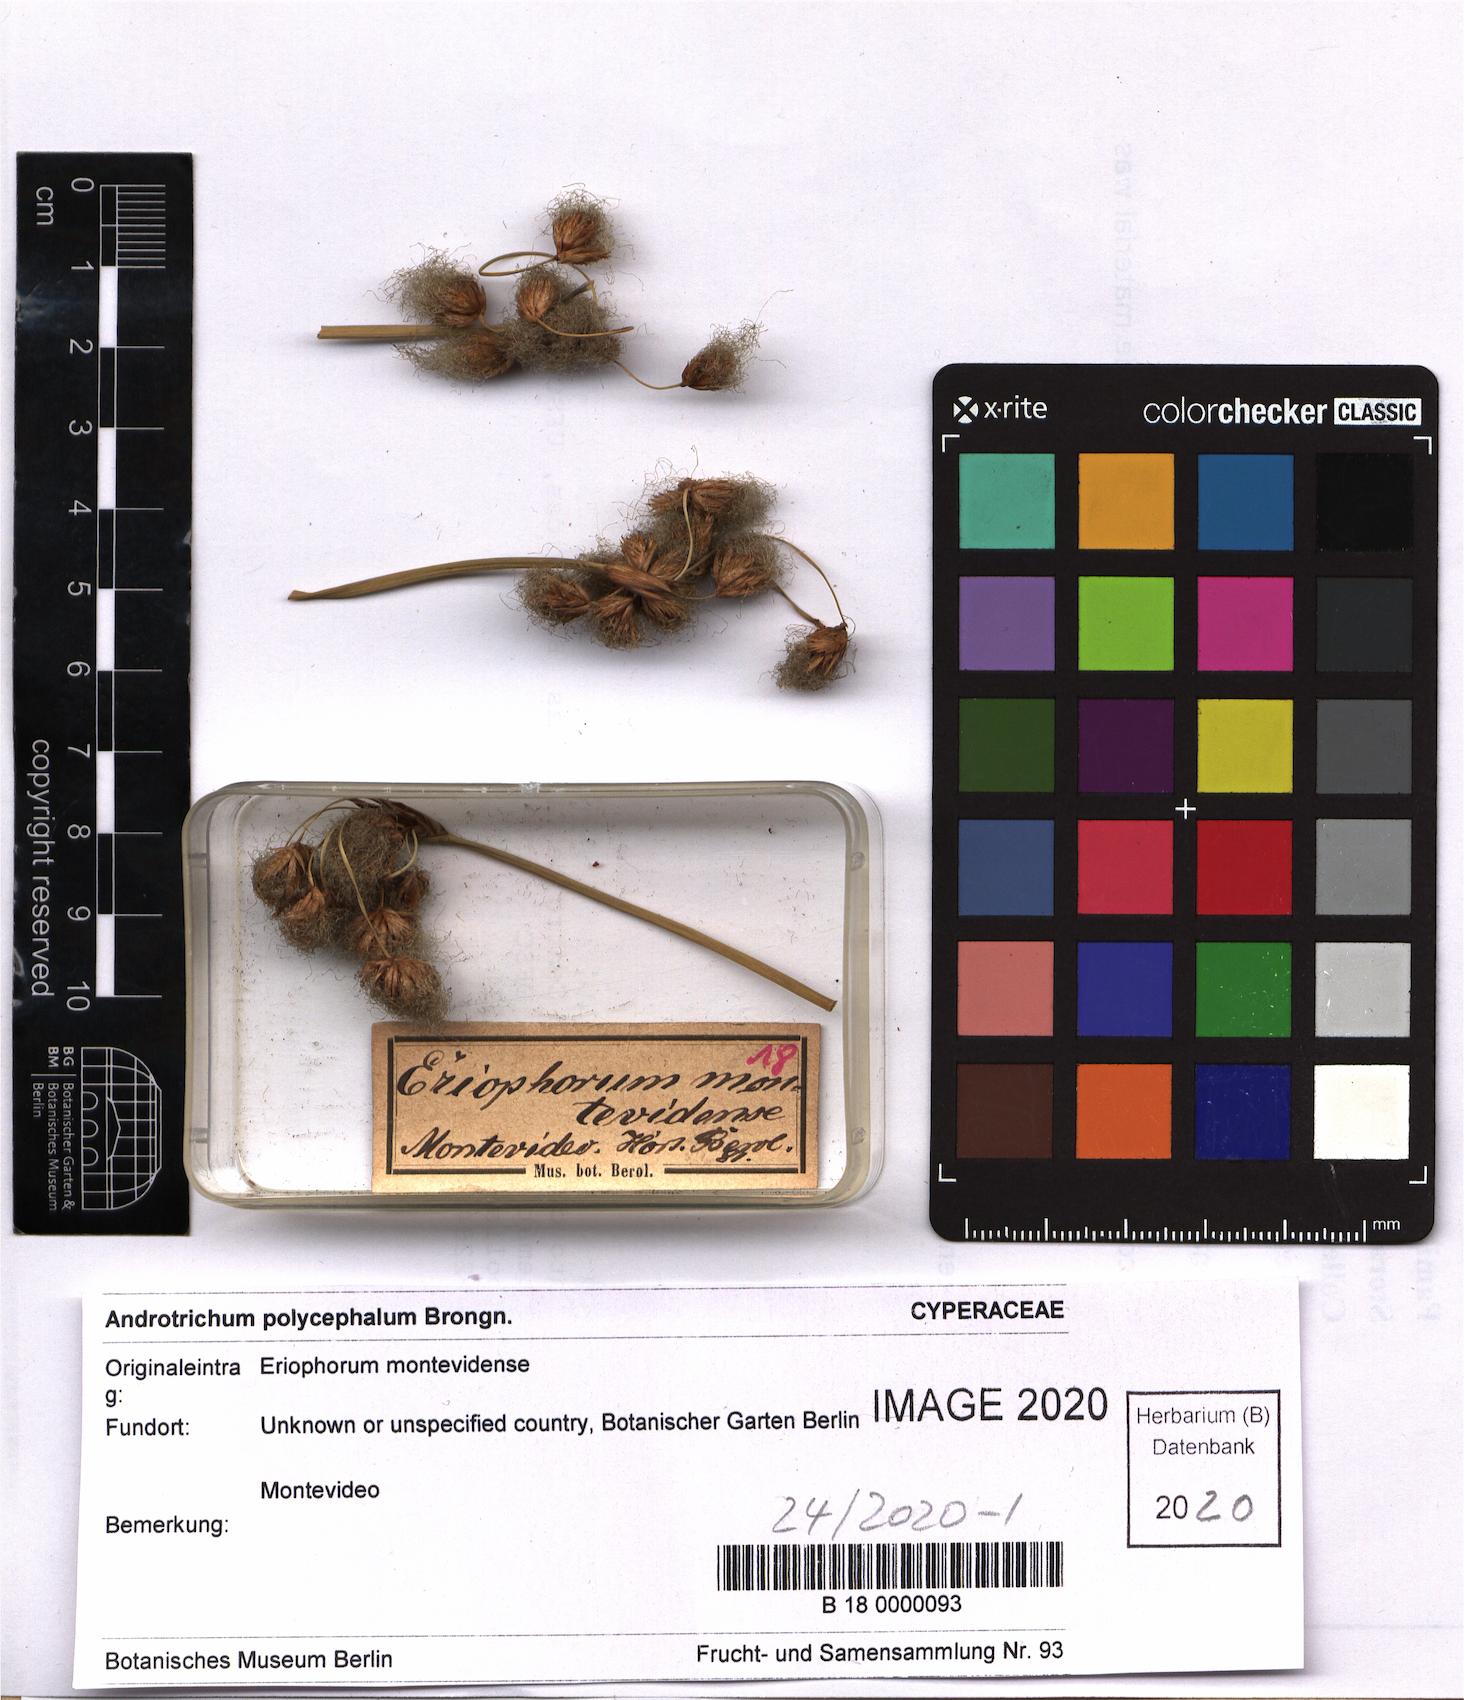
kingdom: Plantae
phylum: Tracheophyta
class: Liliopsida
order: Poales
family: Cyperaceae
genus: Cyperus
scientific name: Cyperus Androtrichum polycephalum
